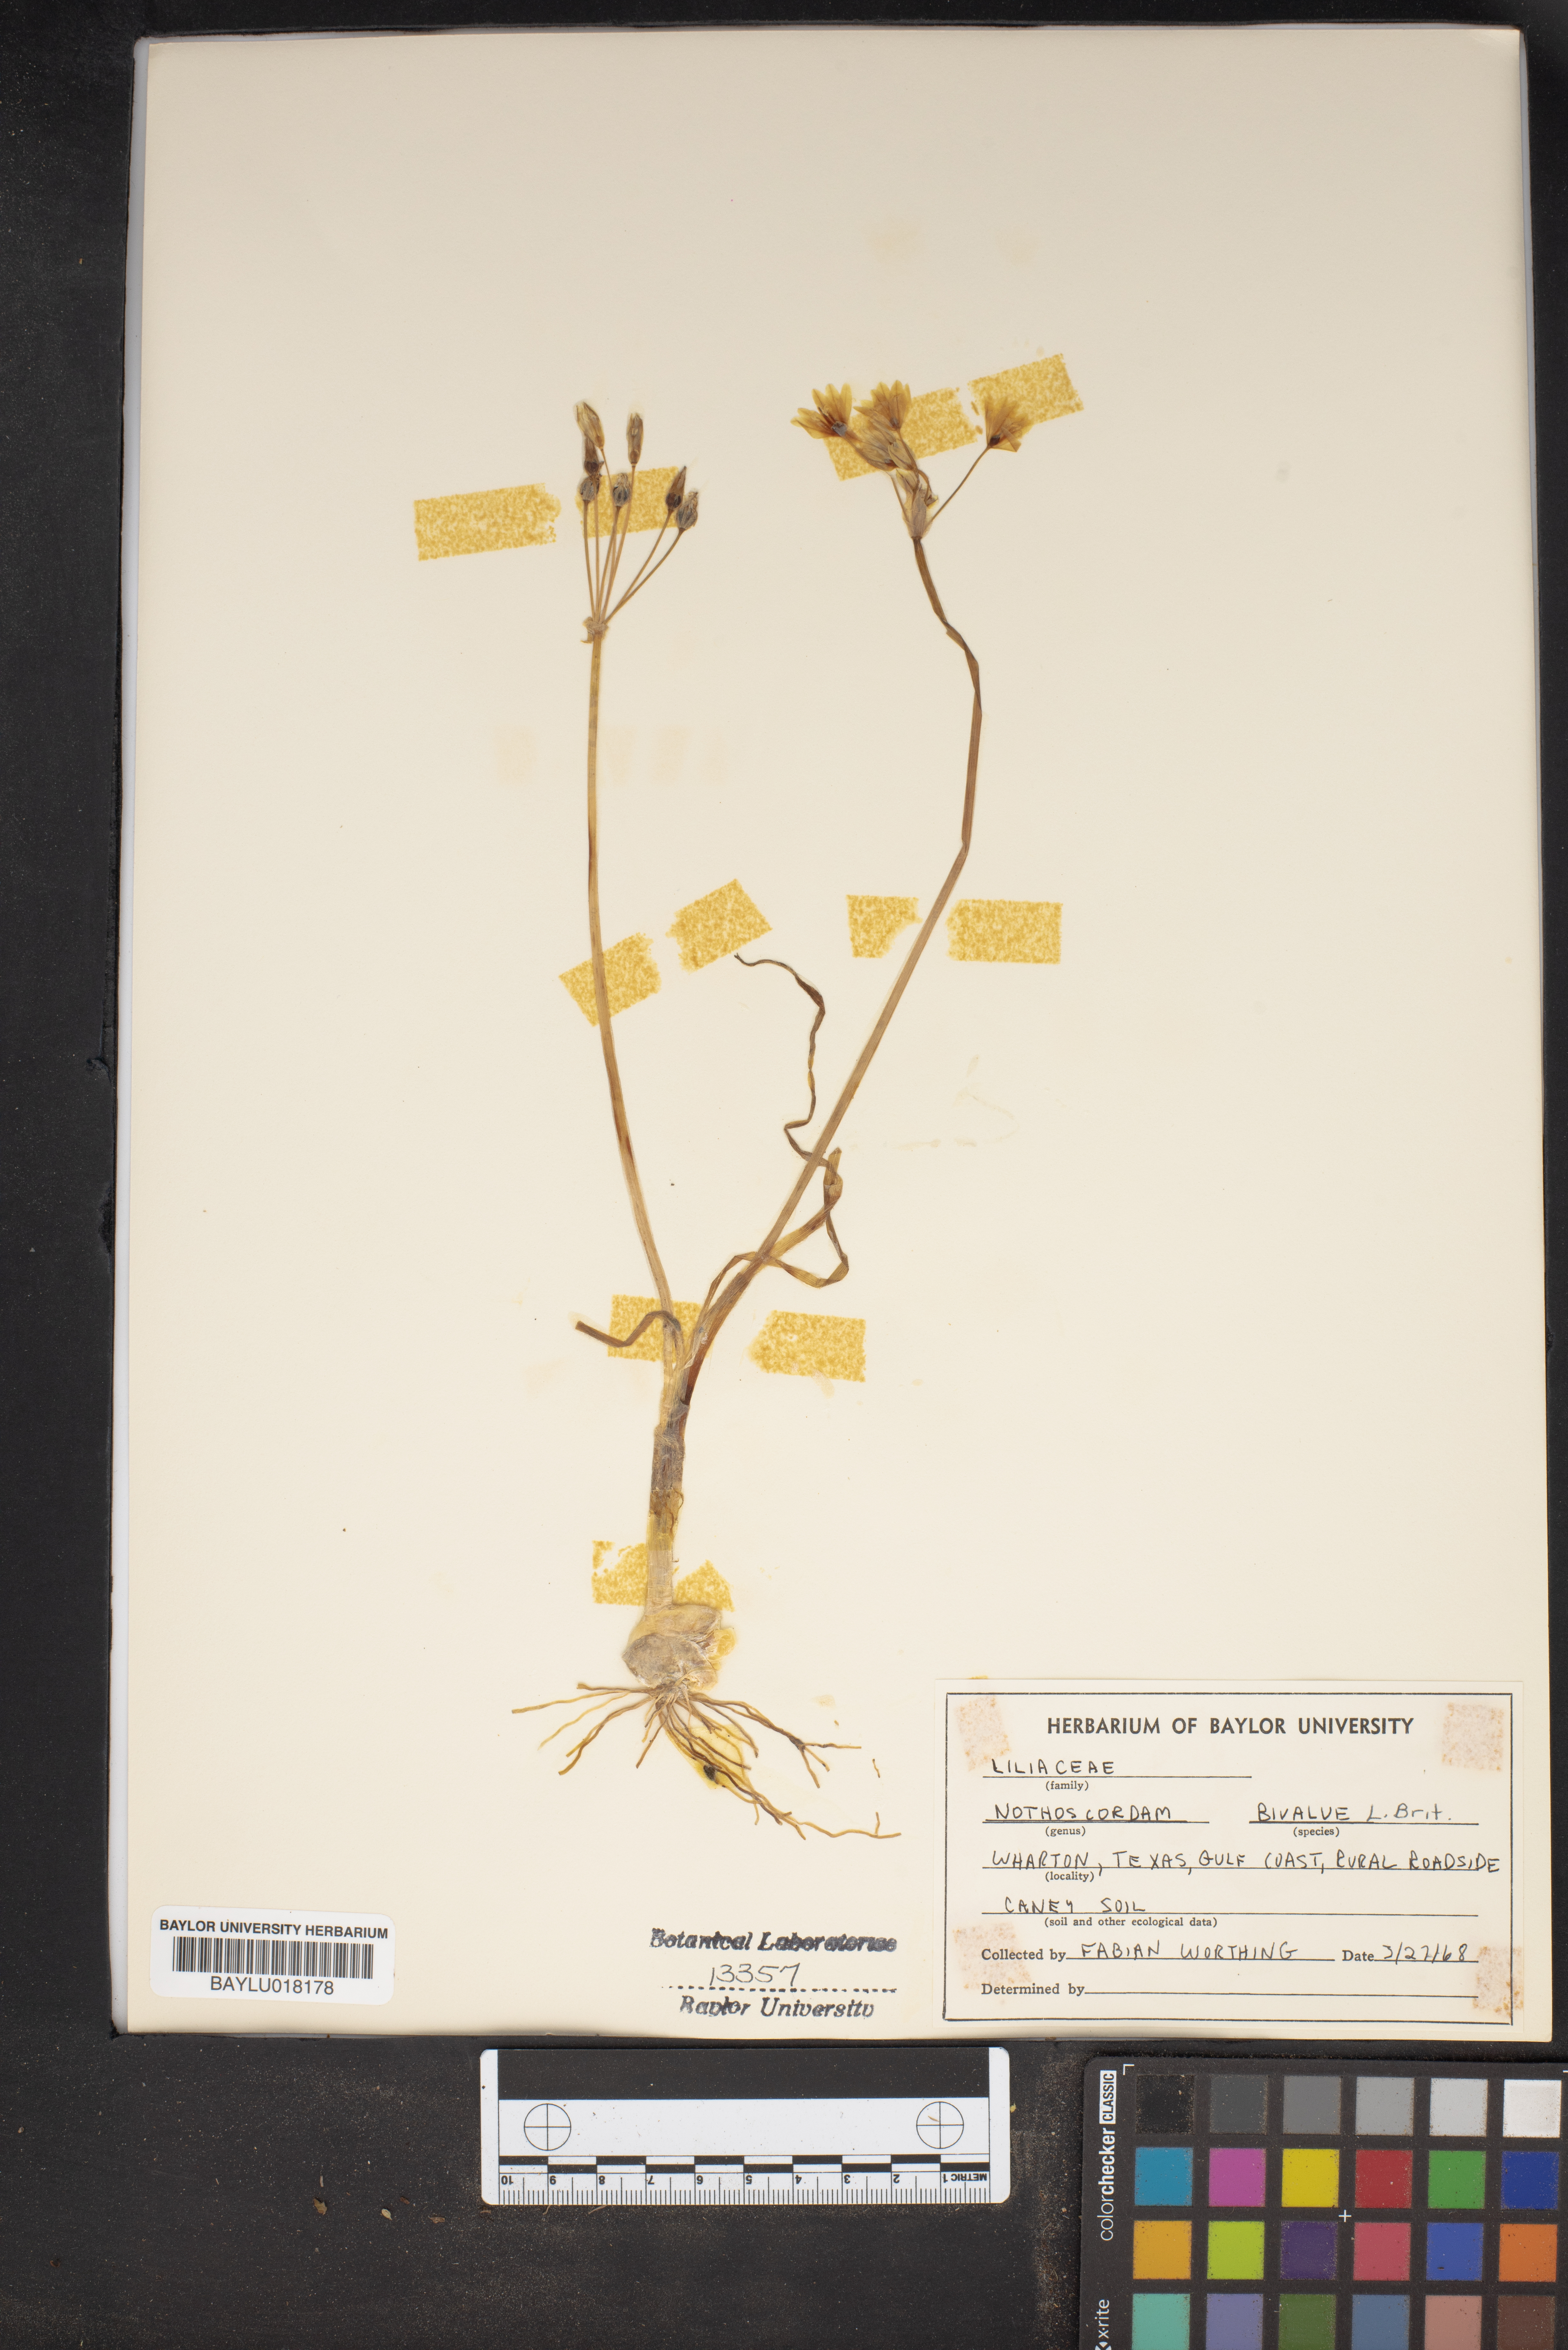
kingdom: Plantae
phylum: Tracheophyta
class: Liliopsida
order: Asparagales
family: Amaryllidaceae
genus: Nothoscordum
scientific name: Nothoscordum bivalve
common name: Crow-poison
